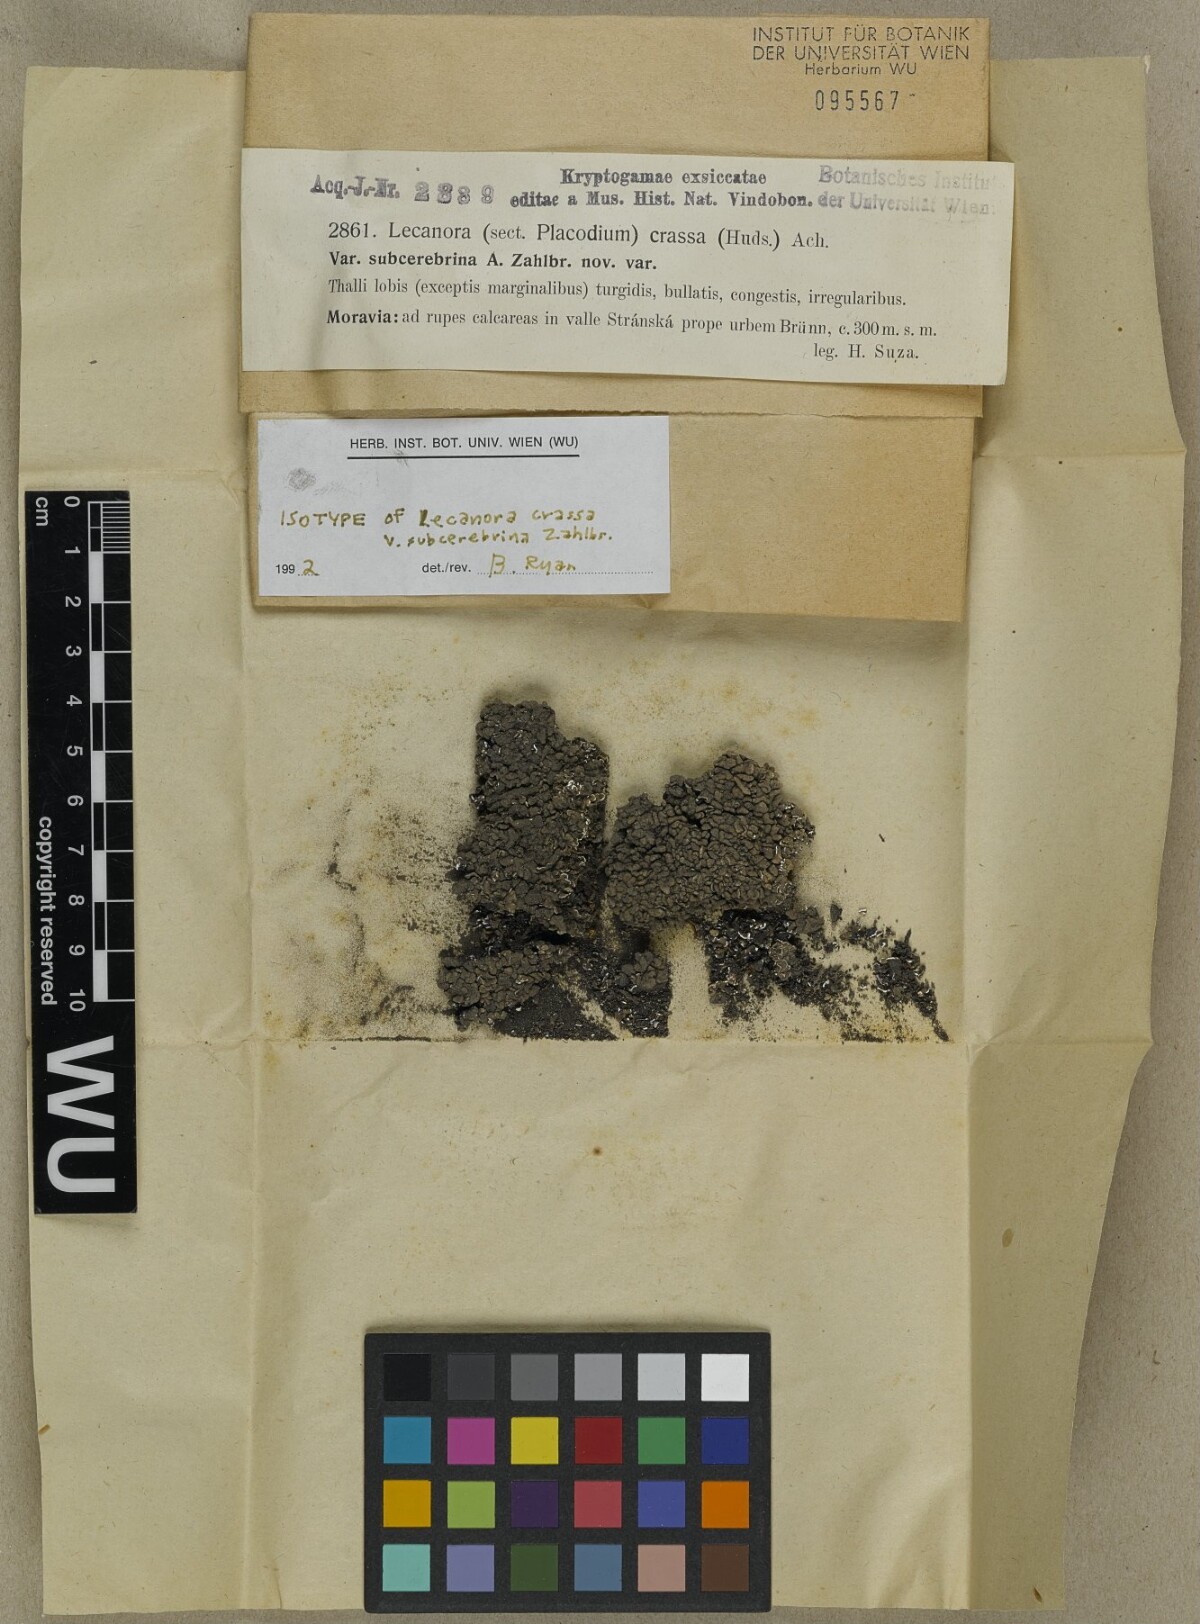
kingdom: Fungi
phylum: Ascomycota
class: Lecanoromycetes
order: Lecanorales
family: Lecanoraceae
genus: Lecanora
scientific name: Lecanora chlarotera
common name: Brown rim-lichen
